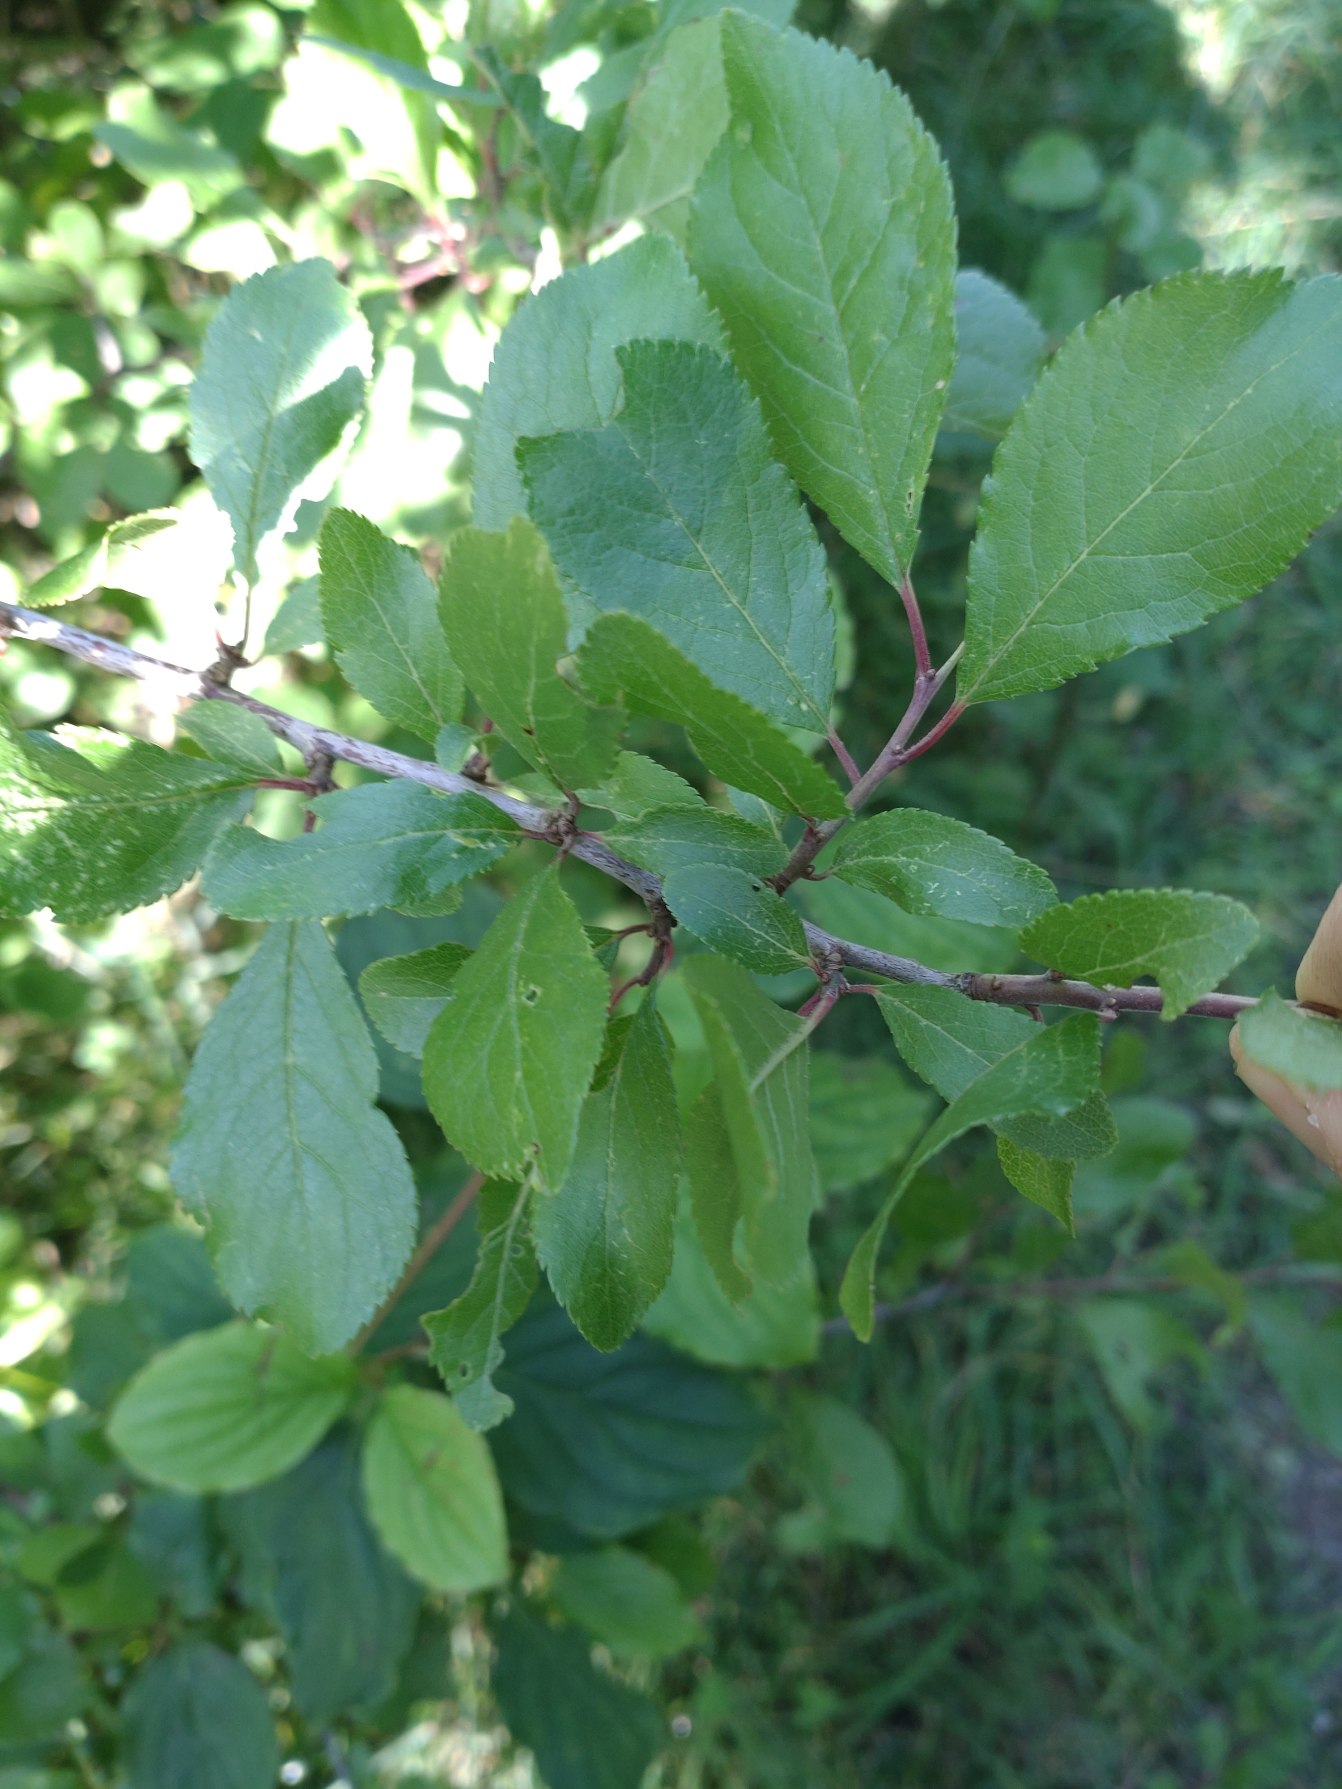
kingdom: Plantae
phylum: Tracheophyta
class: Magnoliopsida
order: Rosales
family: Rosaceae
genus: Prunus
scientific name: Prunus spinosa
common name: Slåen
